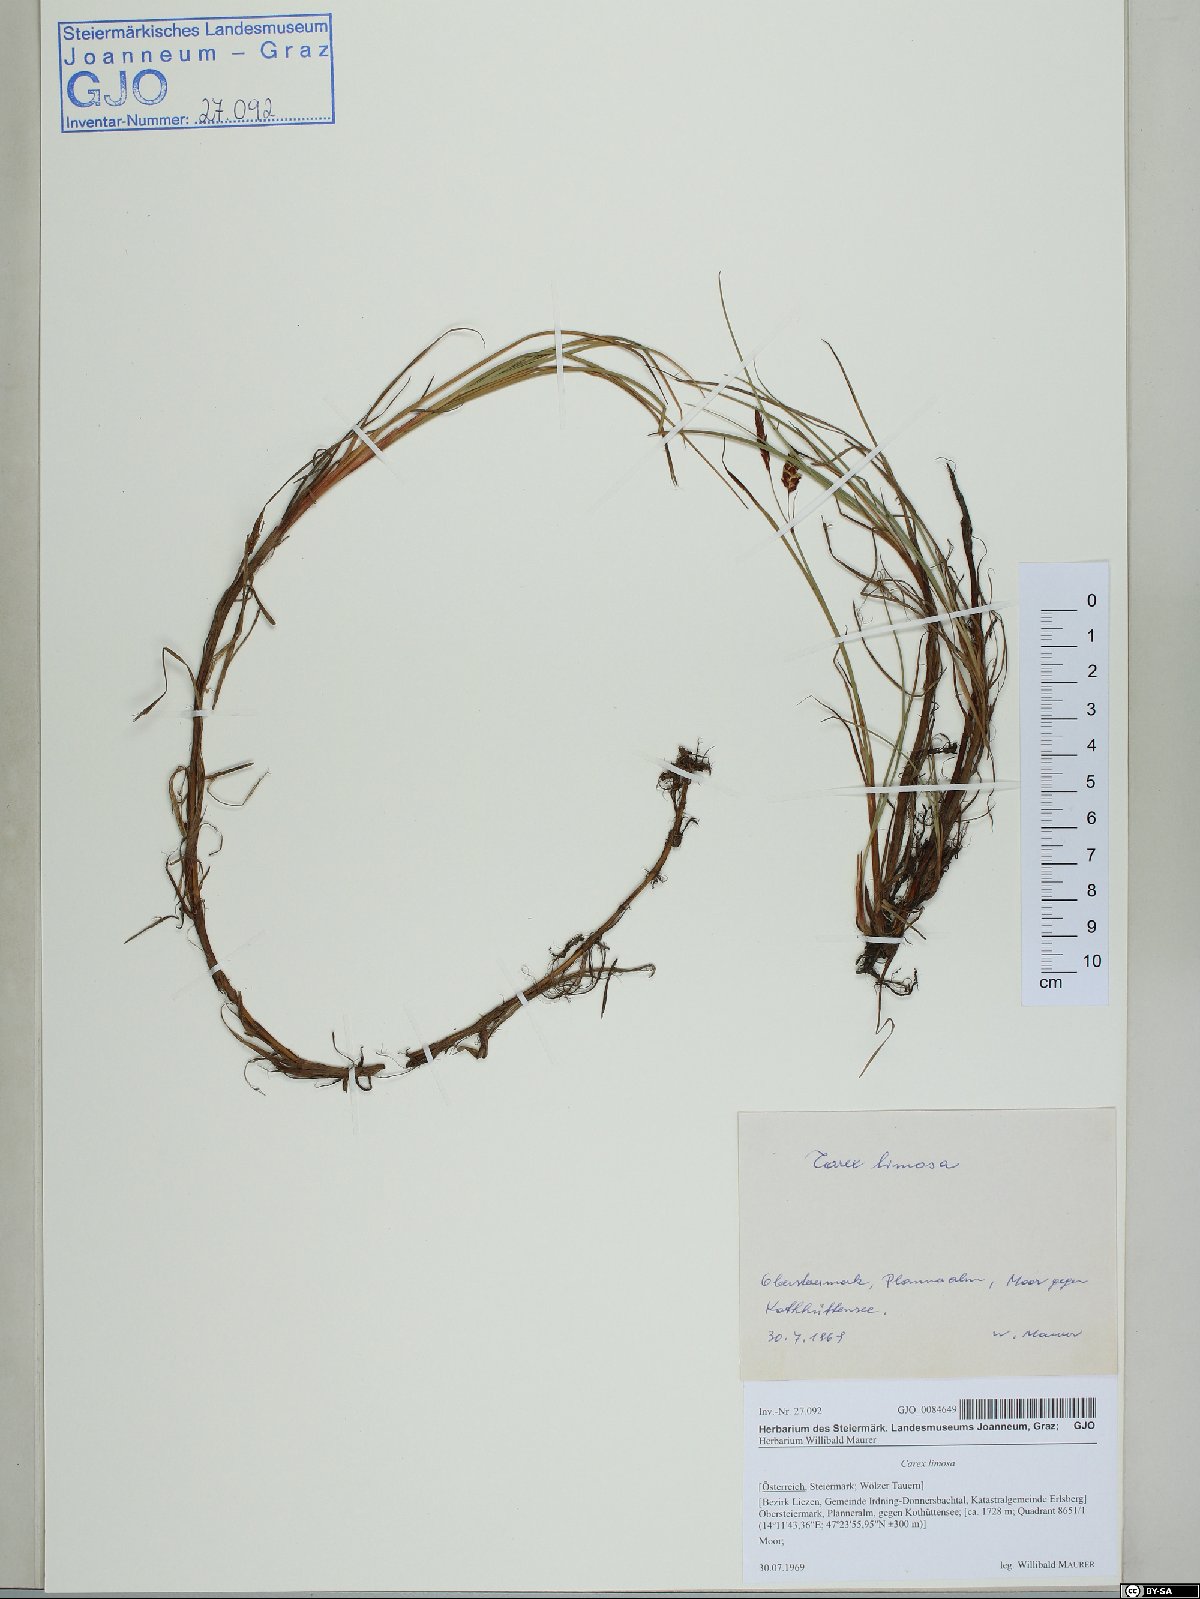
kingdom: Plantae
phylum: Tracheophyta
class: Liliopsida
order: Poales
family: Cyperaceae
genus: Carex
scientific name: Carex limosa
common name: Bog sedge
